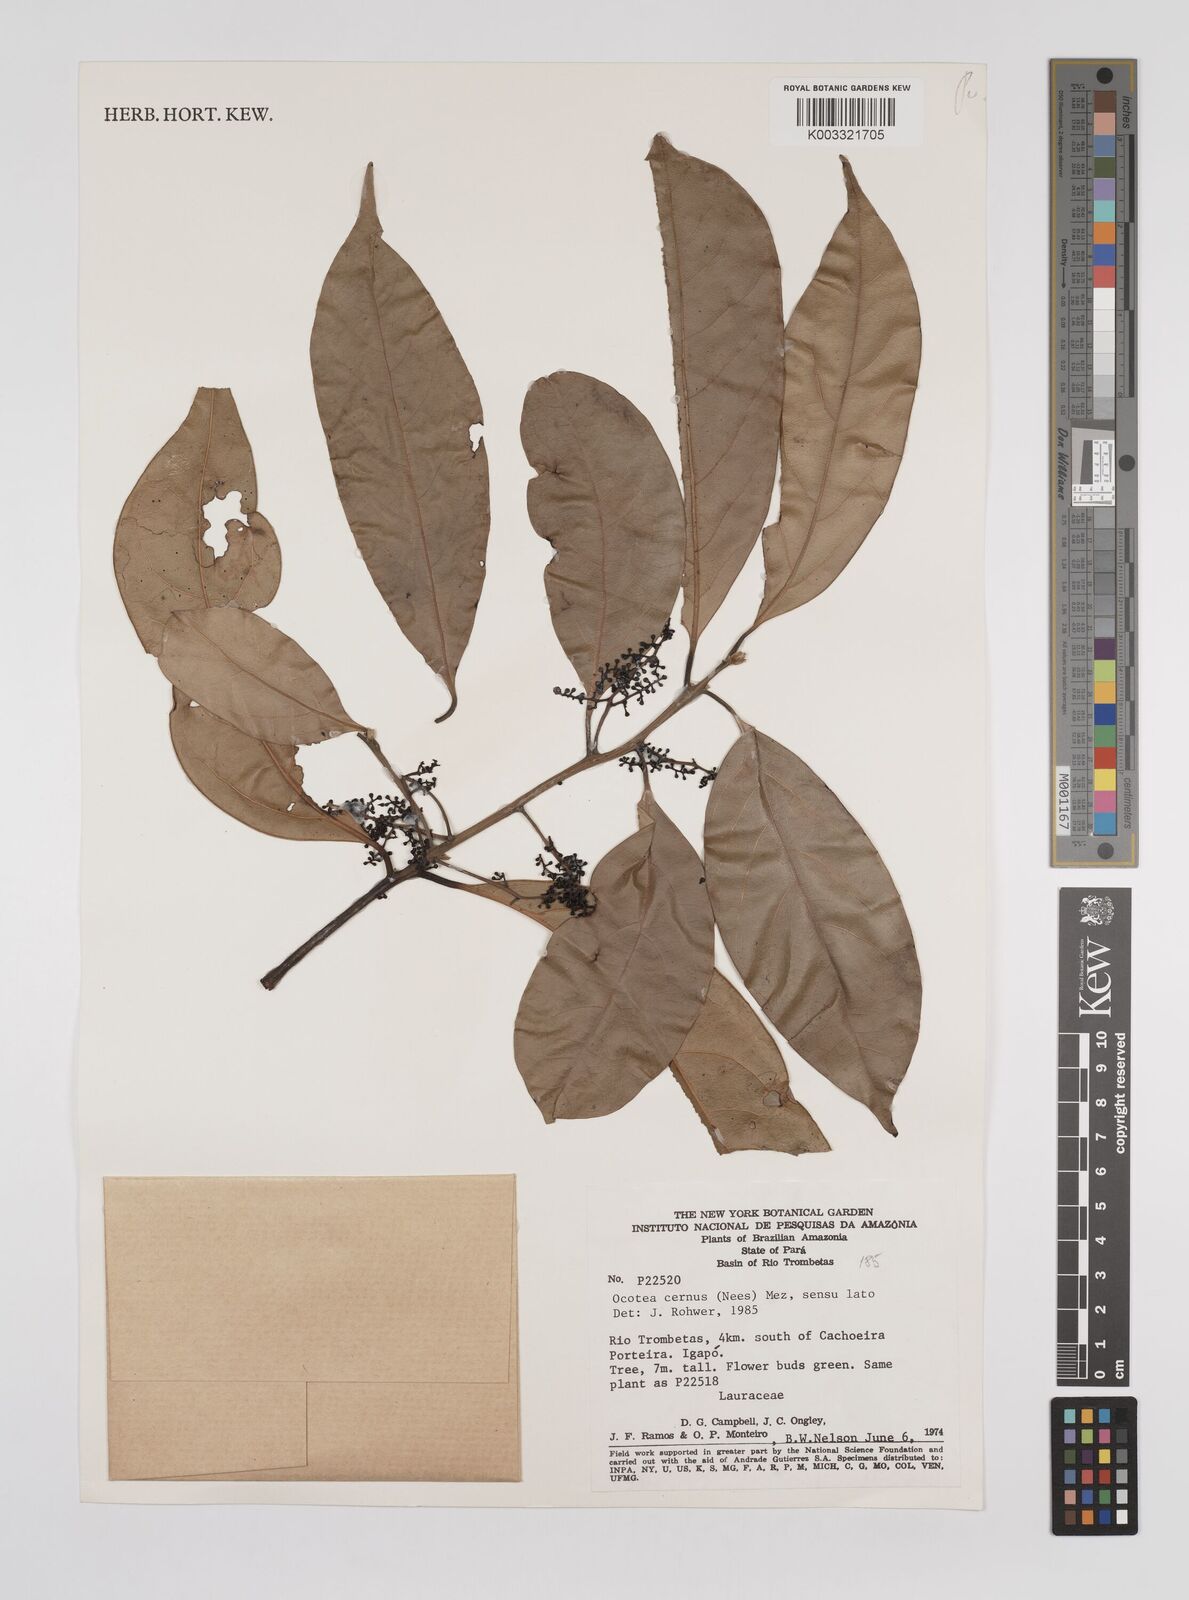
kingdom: Plantae
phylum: Tracheophyta
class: Magnoliopsida
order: Laurales
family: Lauraceae
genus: Ocotea
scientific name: Ocotea leptobotra
